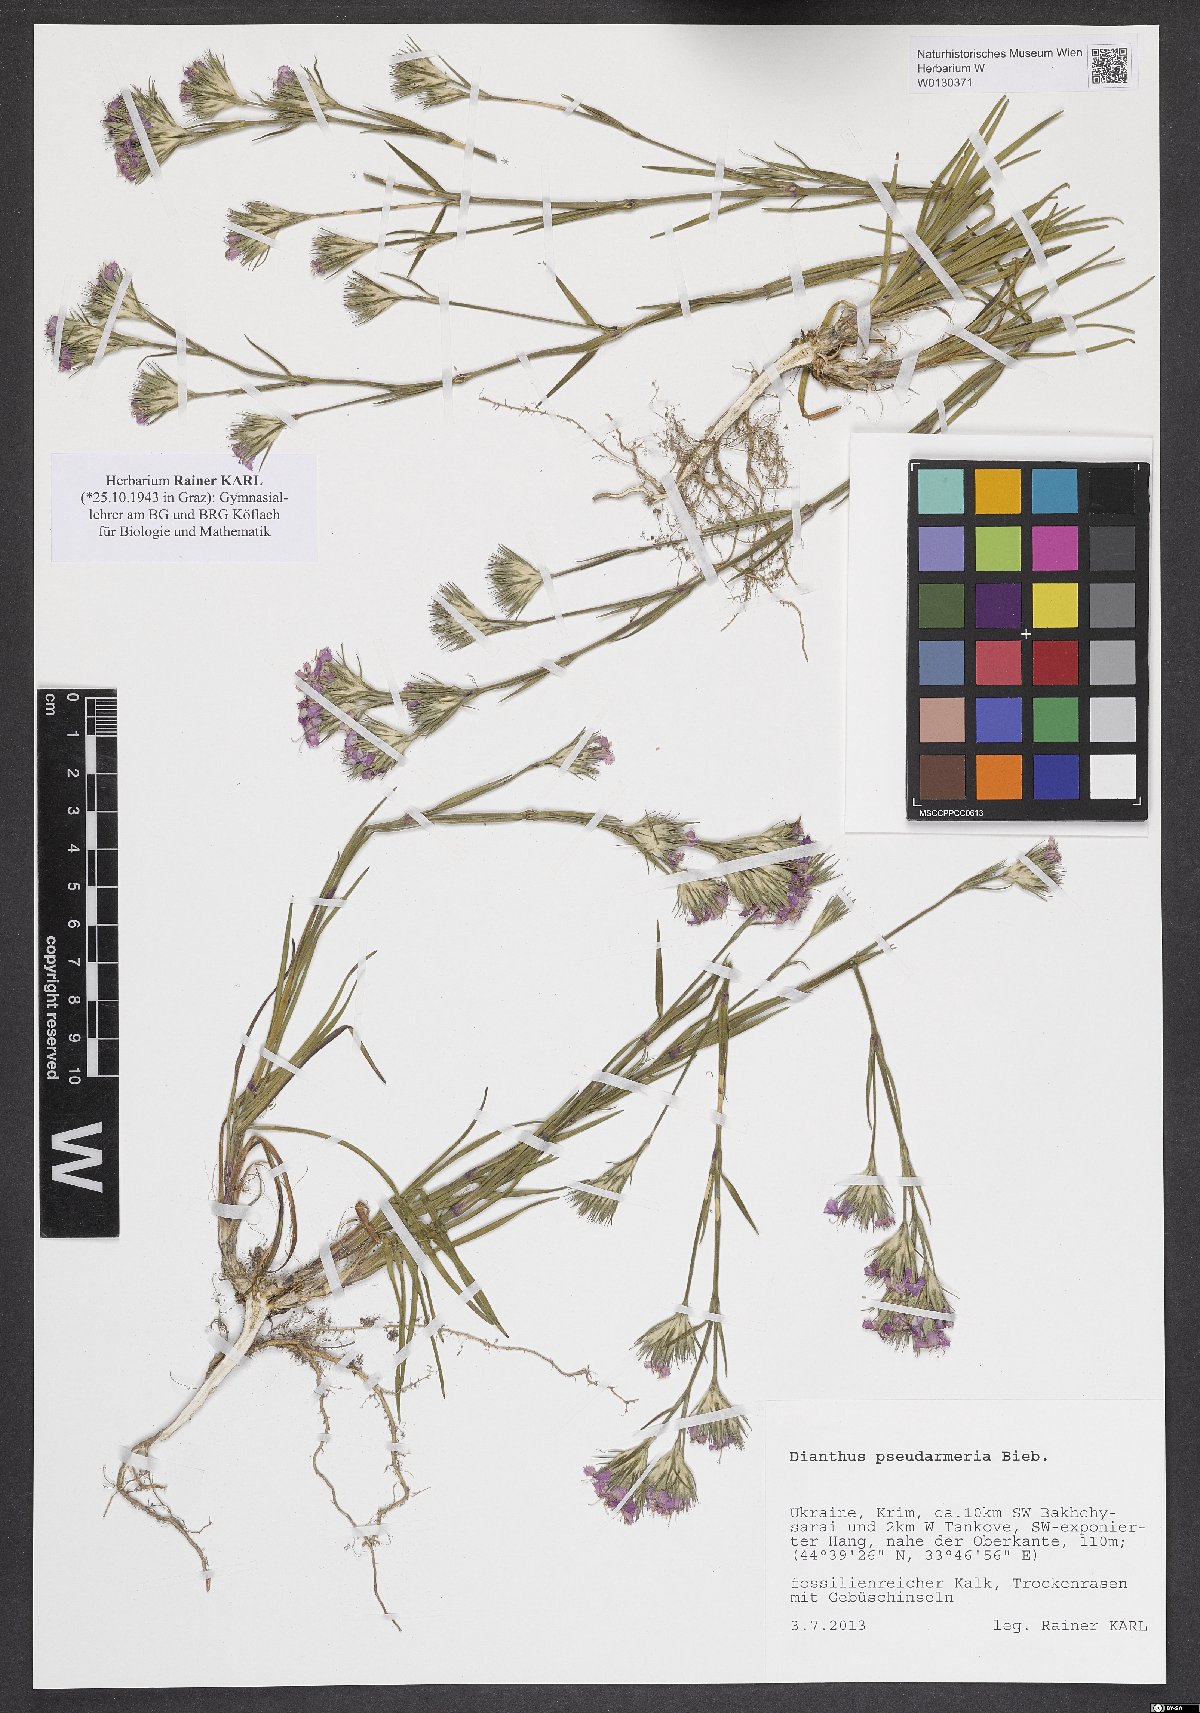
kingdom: Plantae
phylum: Tracheophyta
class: Magnoliopsida
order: Caryophyllales
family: Caryophyllaceae
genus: Dianthus
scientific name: Dianthus pseudarmeria
